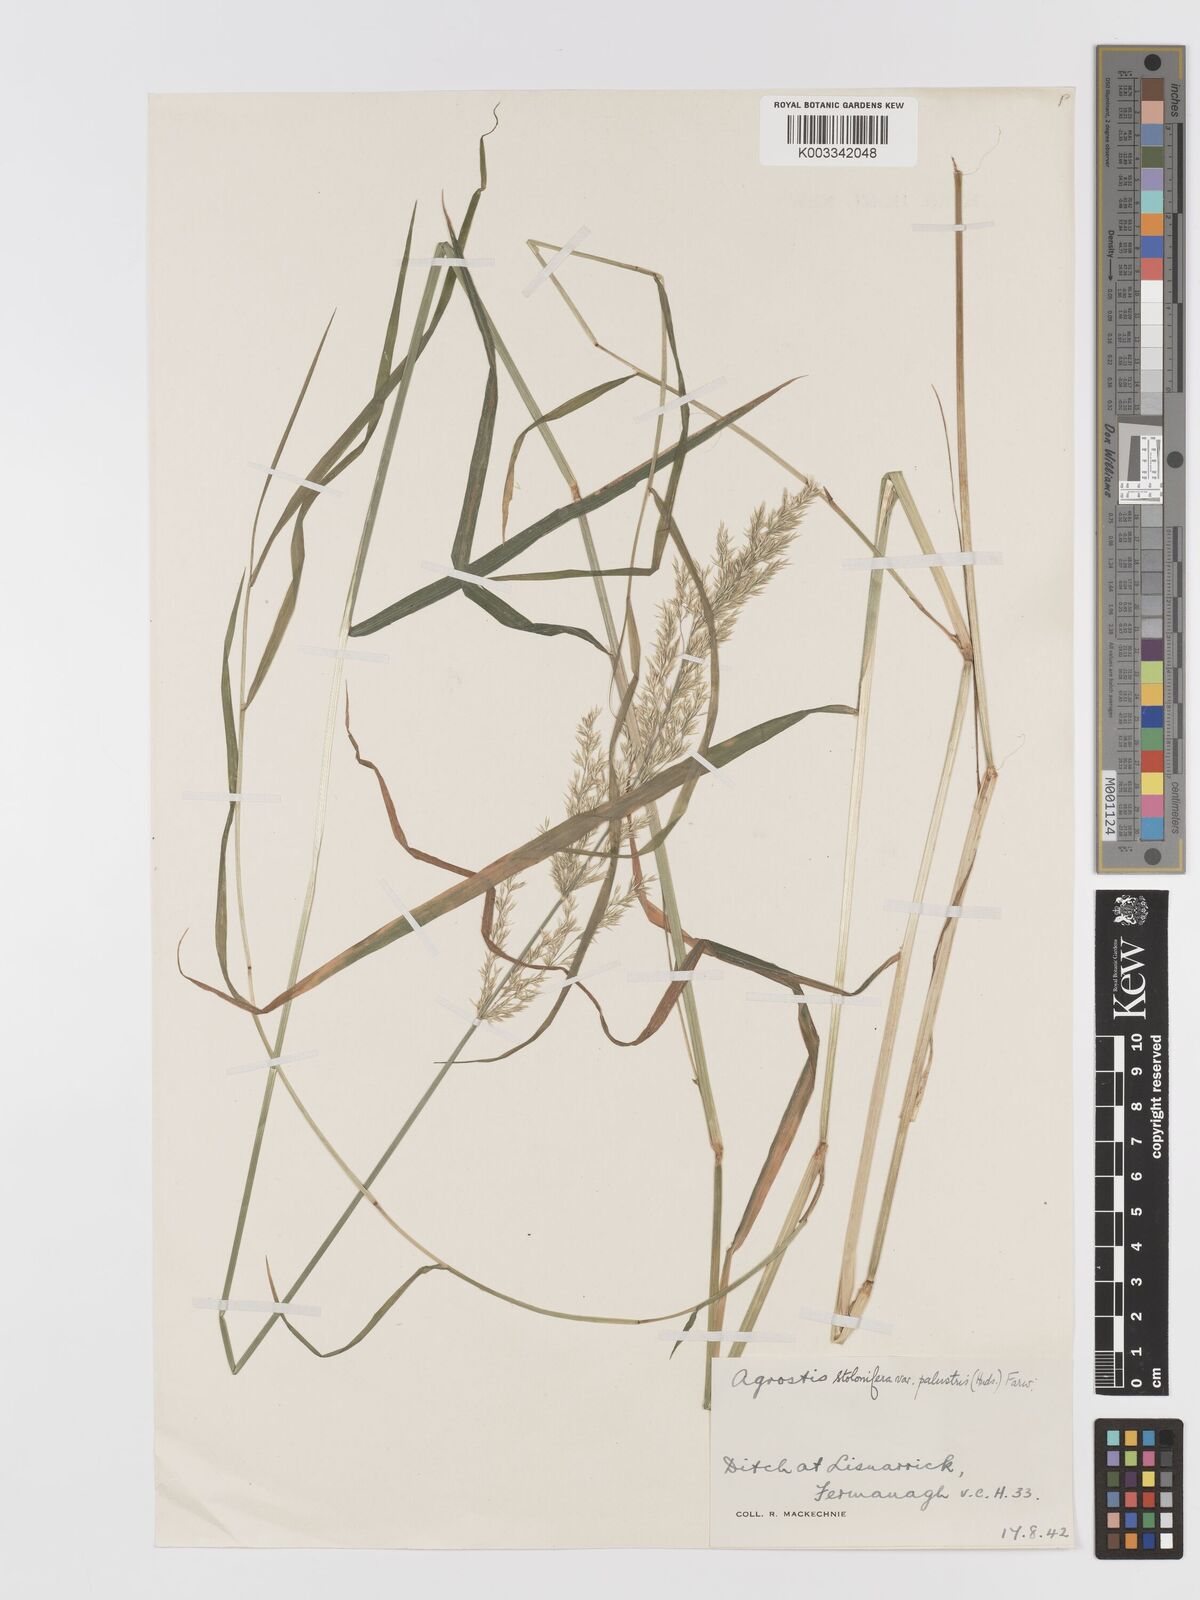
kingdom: Plantae
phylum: Tracheophyta
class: Liliopsida
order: Poales
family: Poaceae
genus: Agrostis
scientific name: Agrostis stolonifera
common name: Creeping bentgrass
